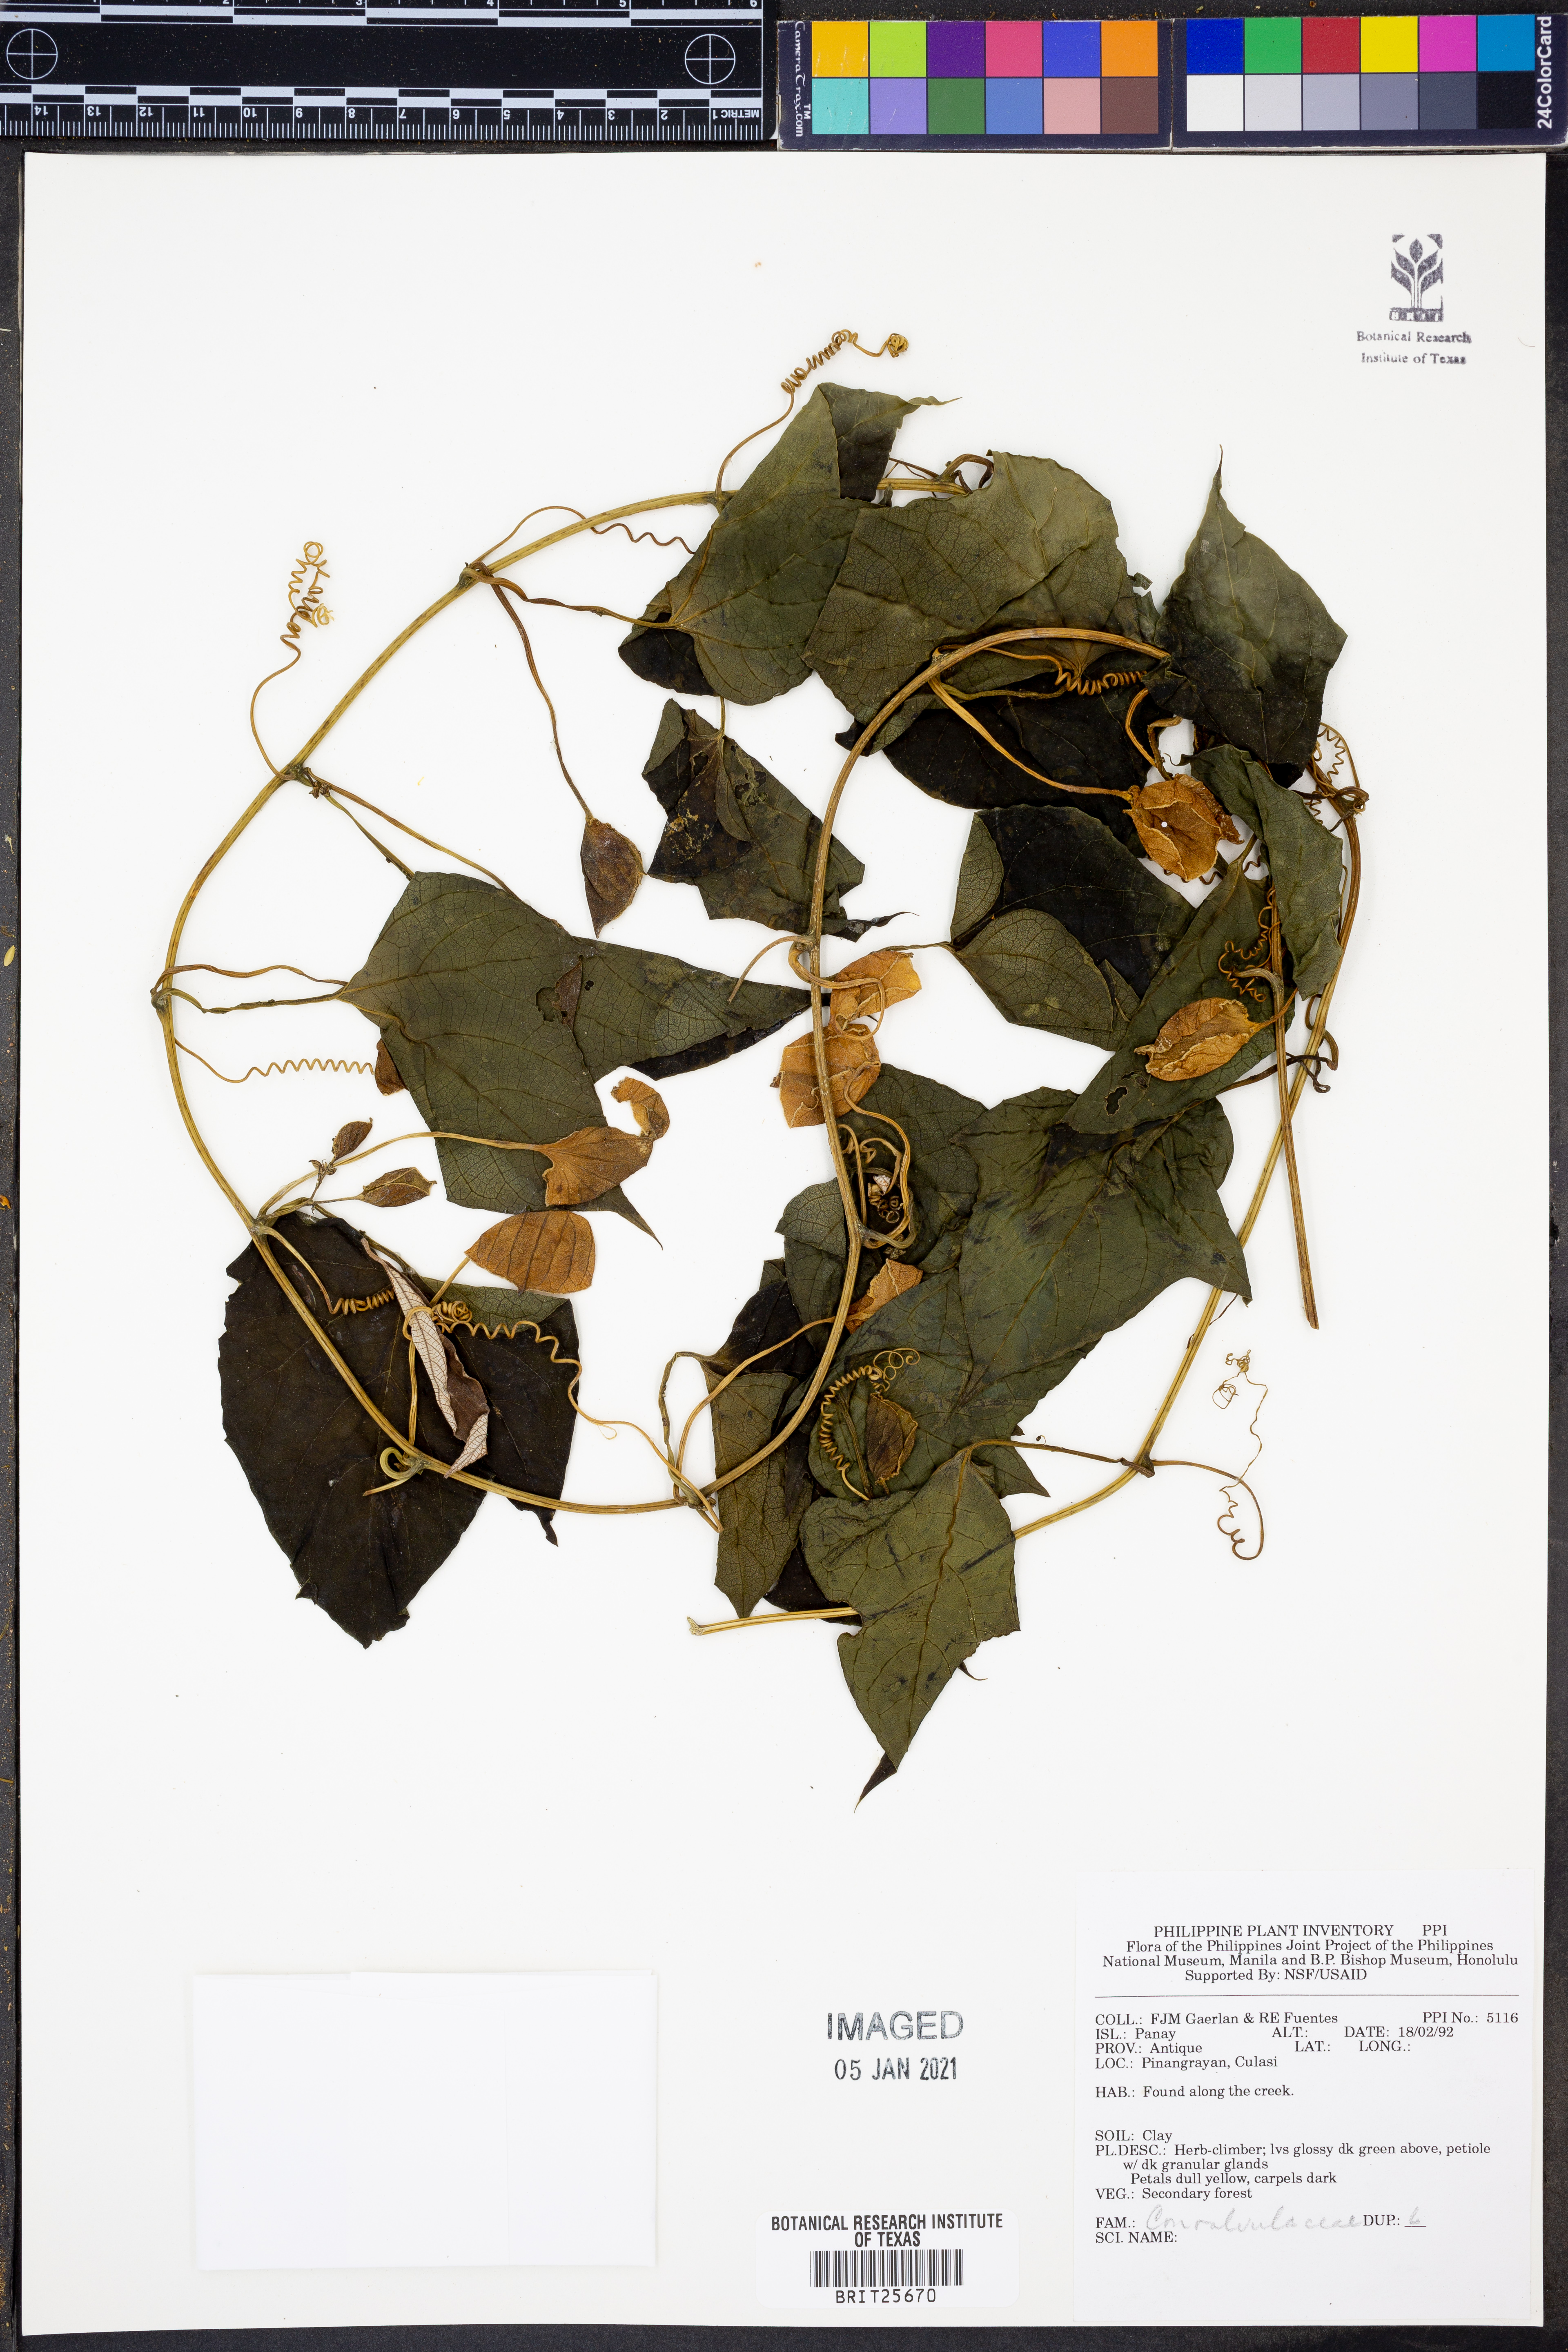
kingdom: Plantae
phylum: Tracheophyta
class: Magnoliopsida
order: Solanales
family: Convolvulaceae
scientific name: Convolvulaceae
